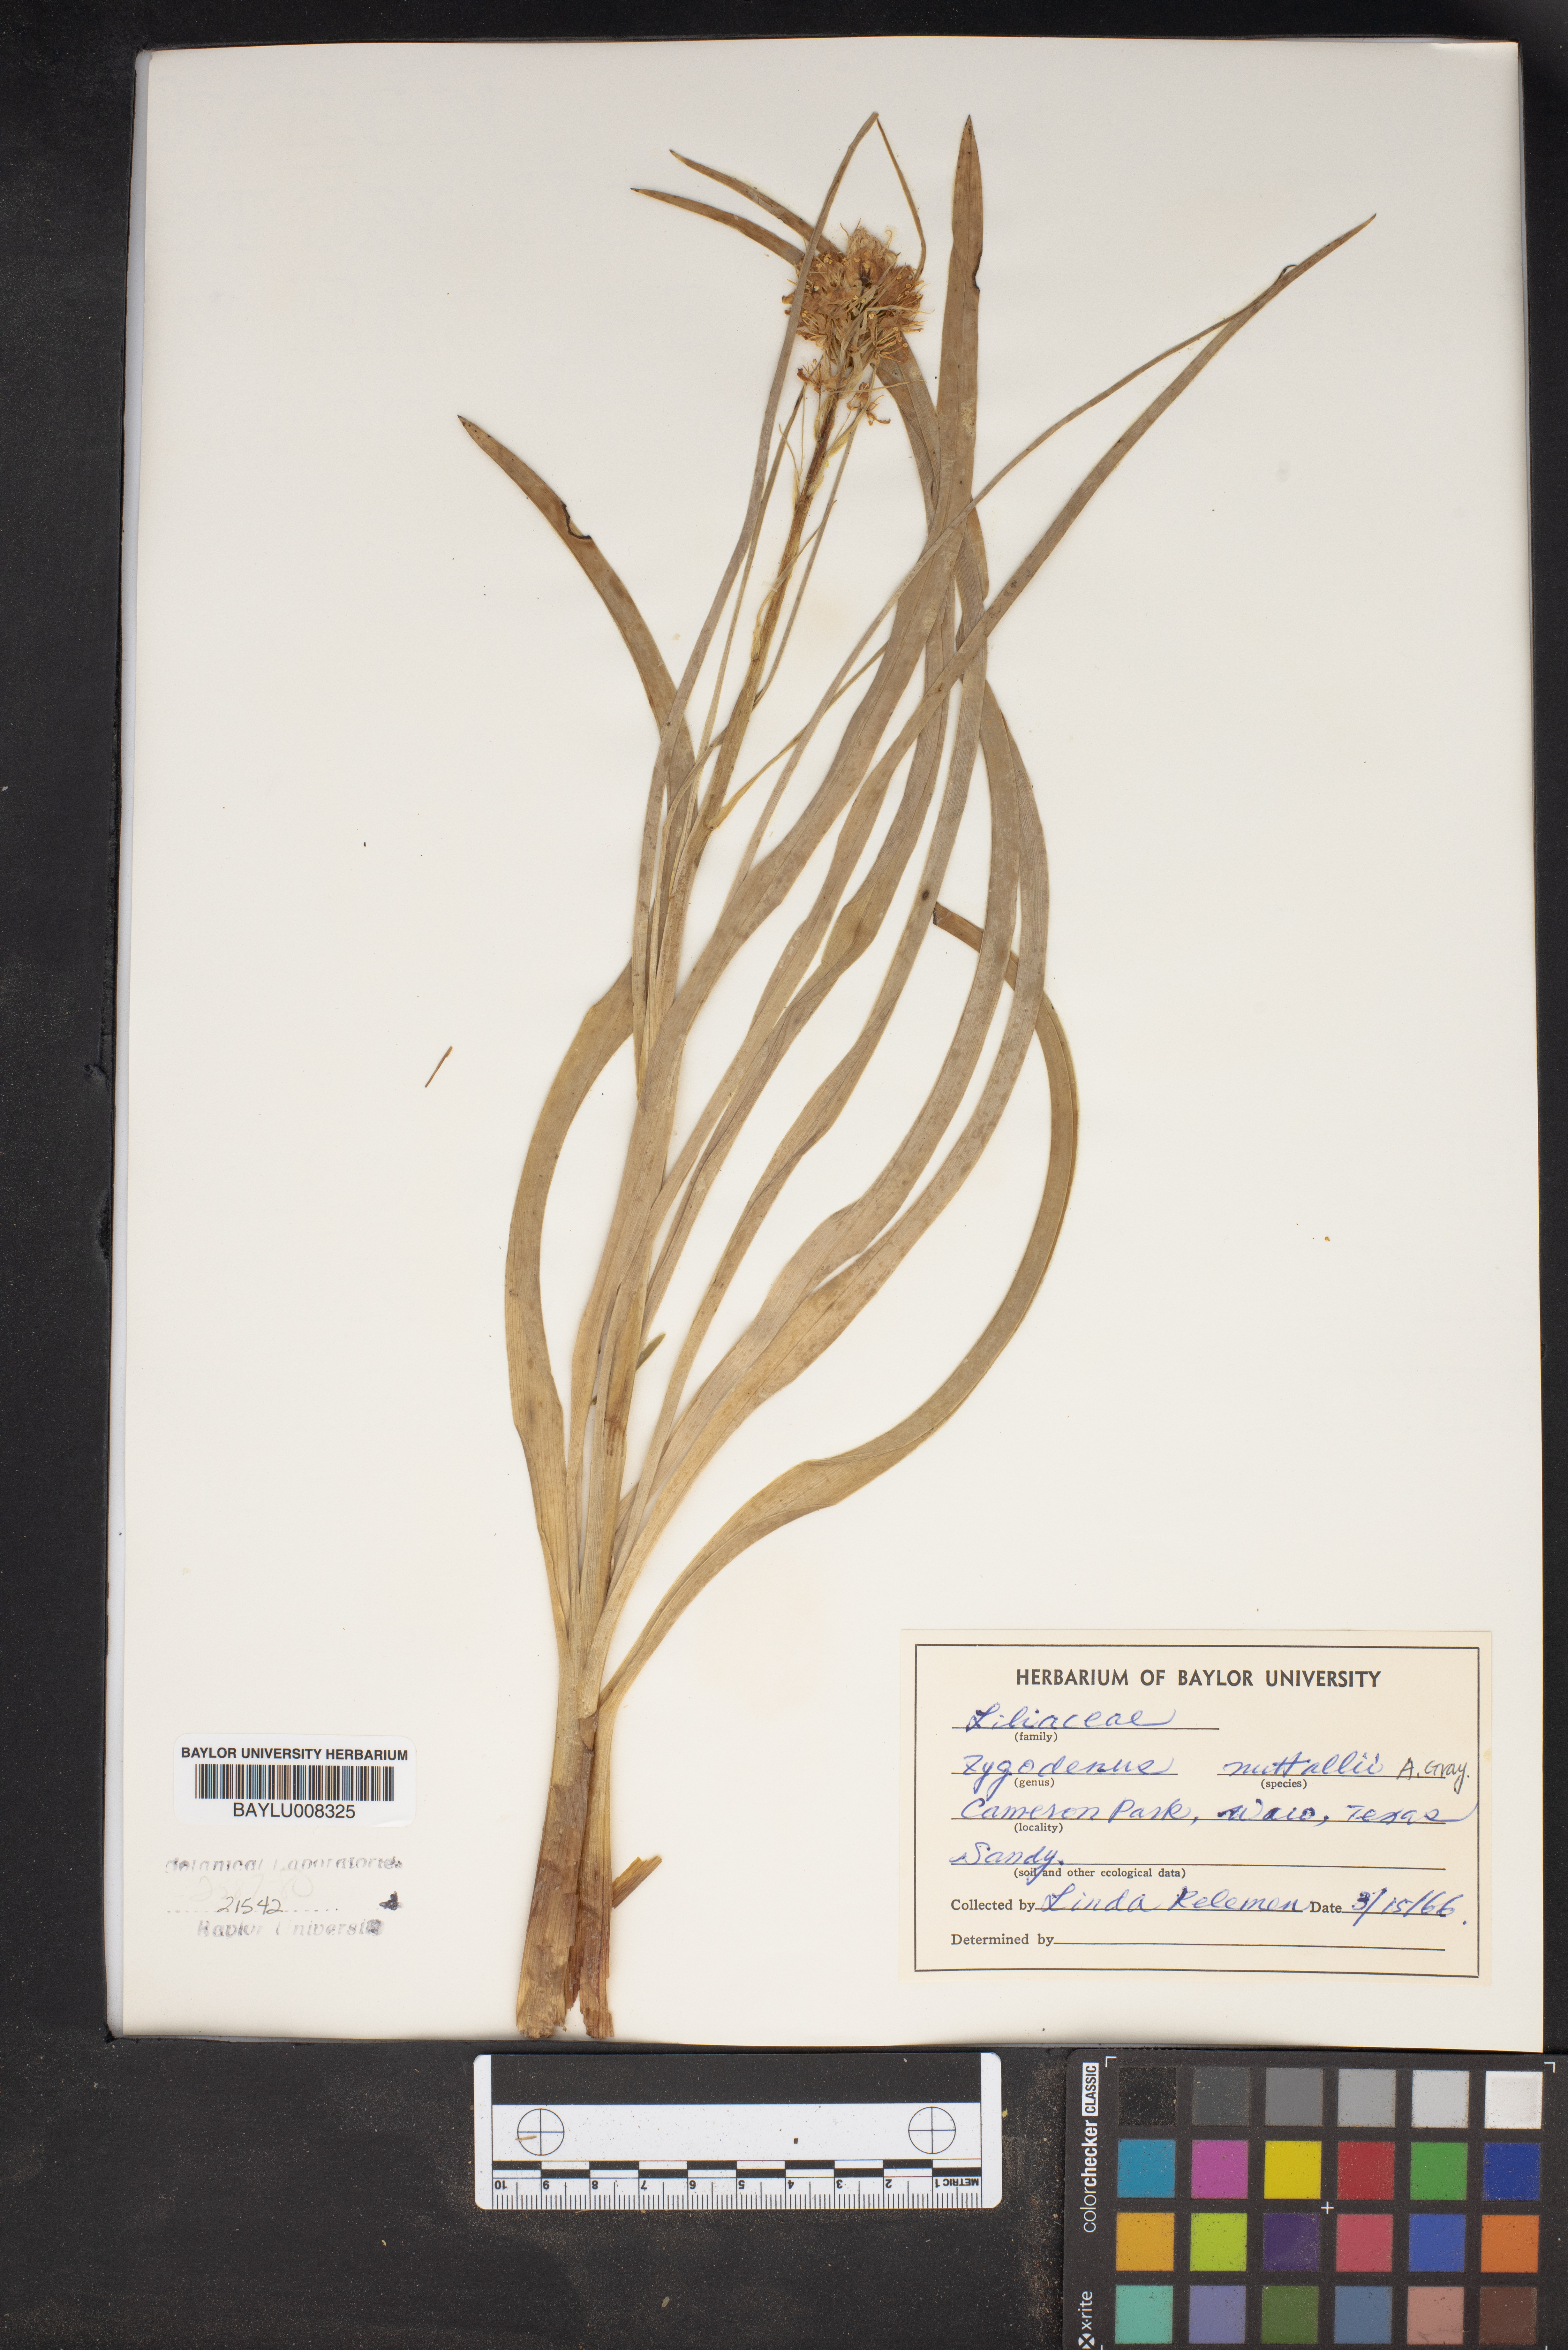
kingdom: Plantae
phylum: Tracheophyta
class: Liliopsida
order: Liliales
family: Melanthiaceae
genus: Toxicoscordion
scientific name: Toxicoscordion nuttallii
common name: Poison sego
